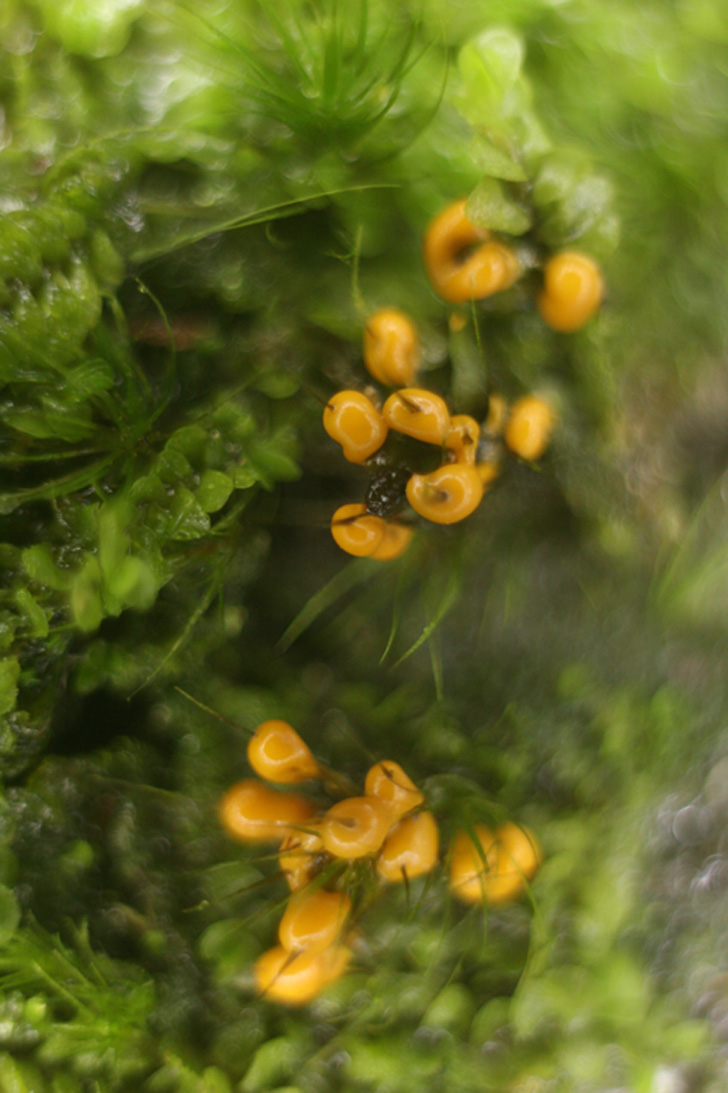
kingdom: Protozoa
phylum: Mycetozoa
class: Myxomycetes
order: Physarales
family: Didymiaceae
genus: Diderma
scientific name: Diderma ochraceum
